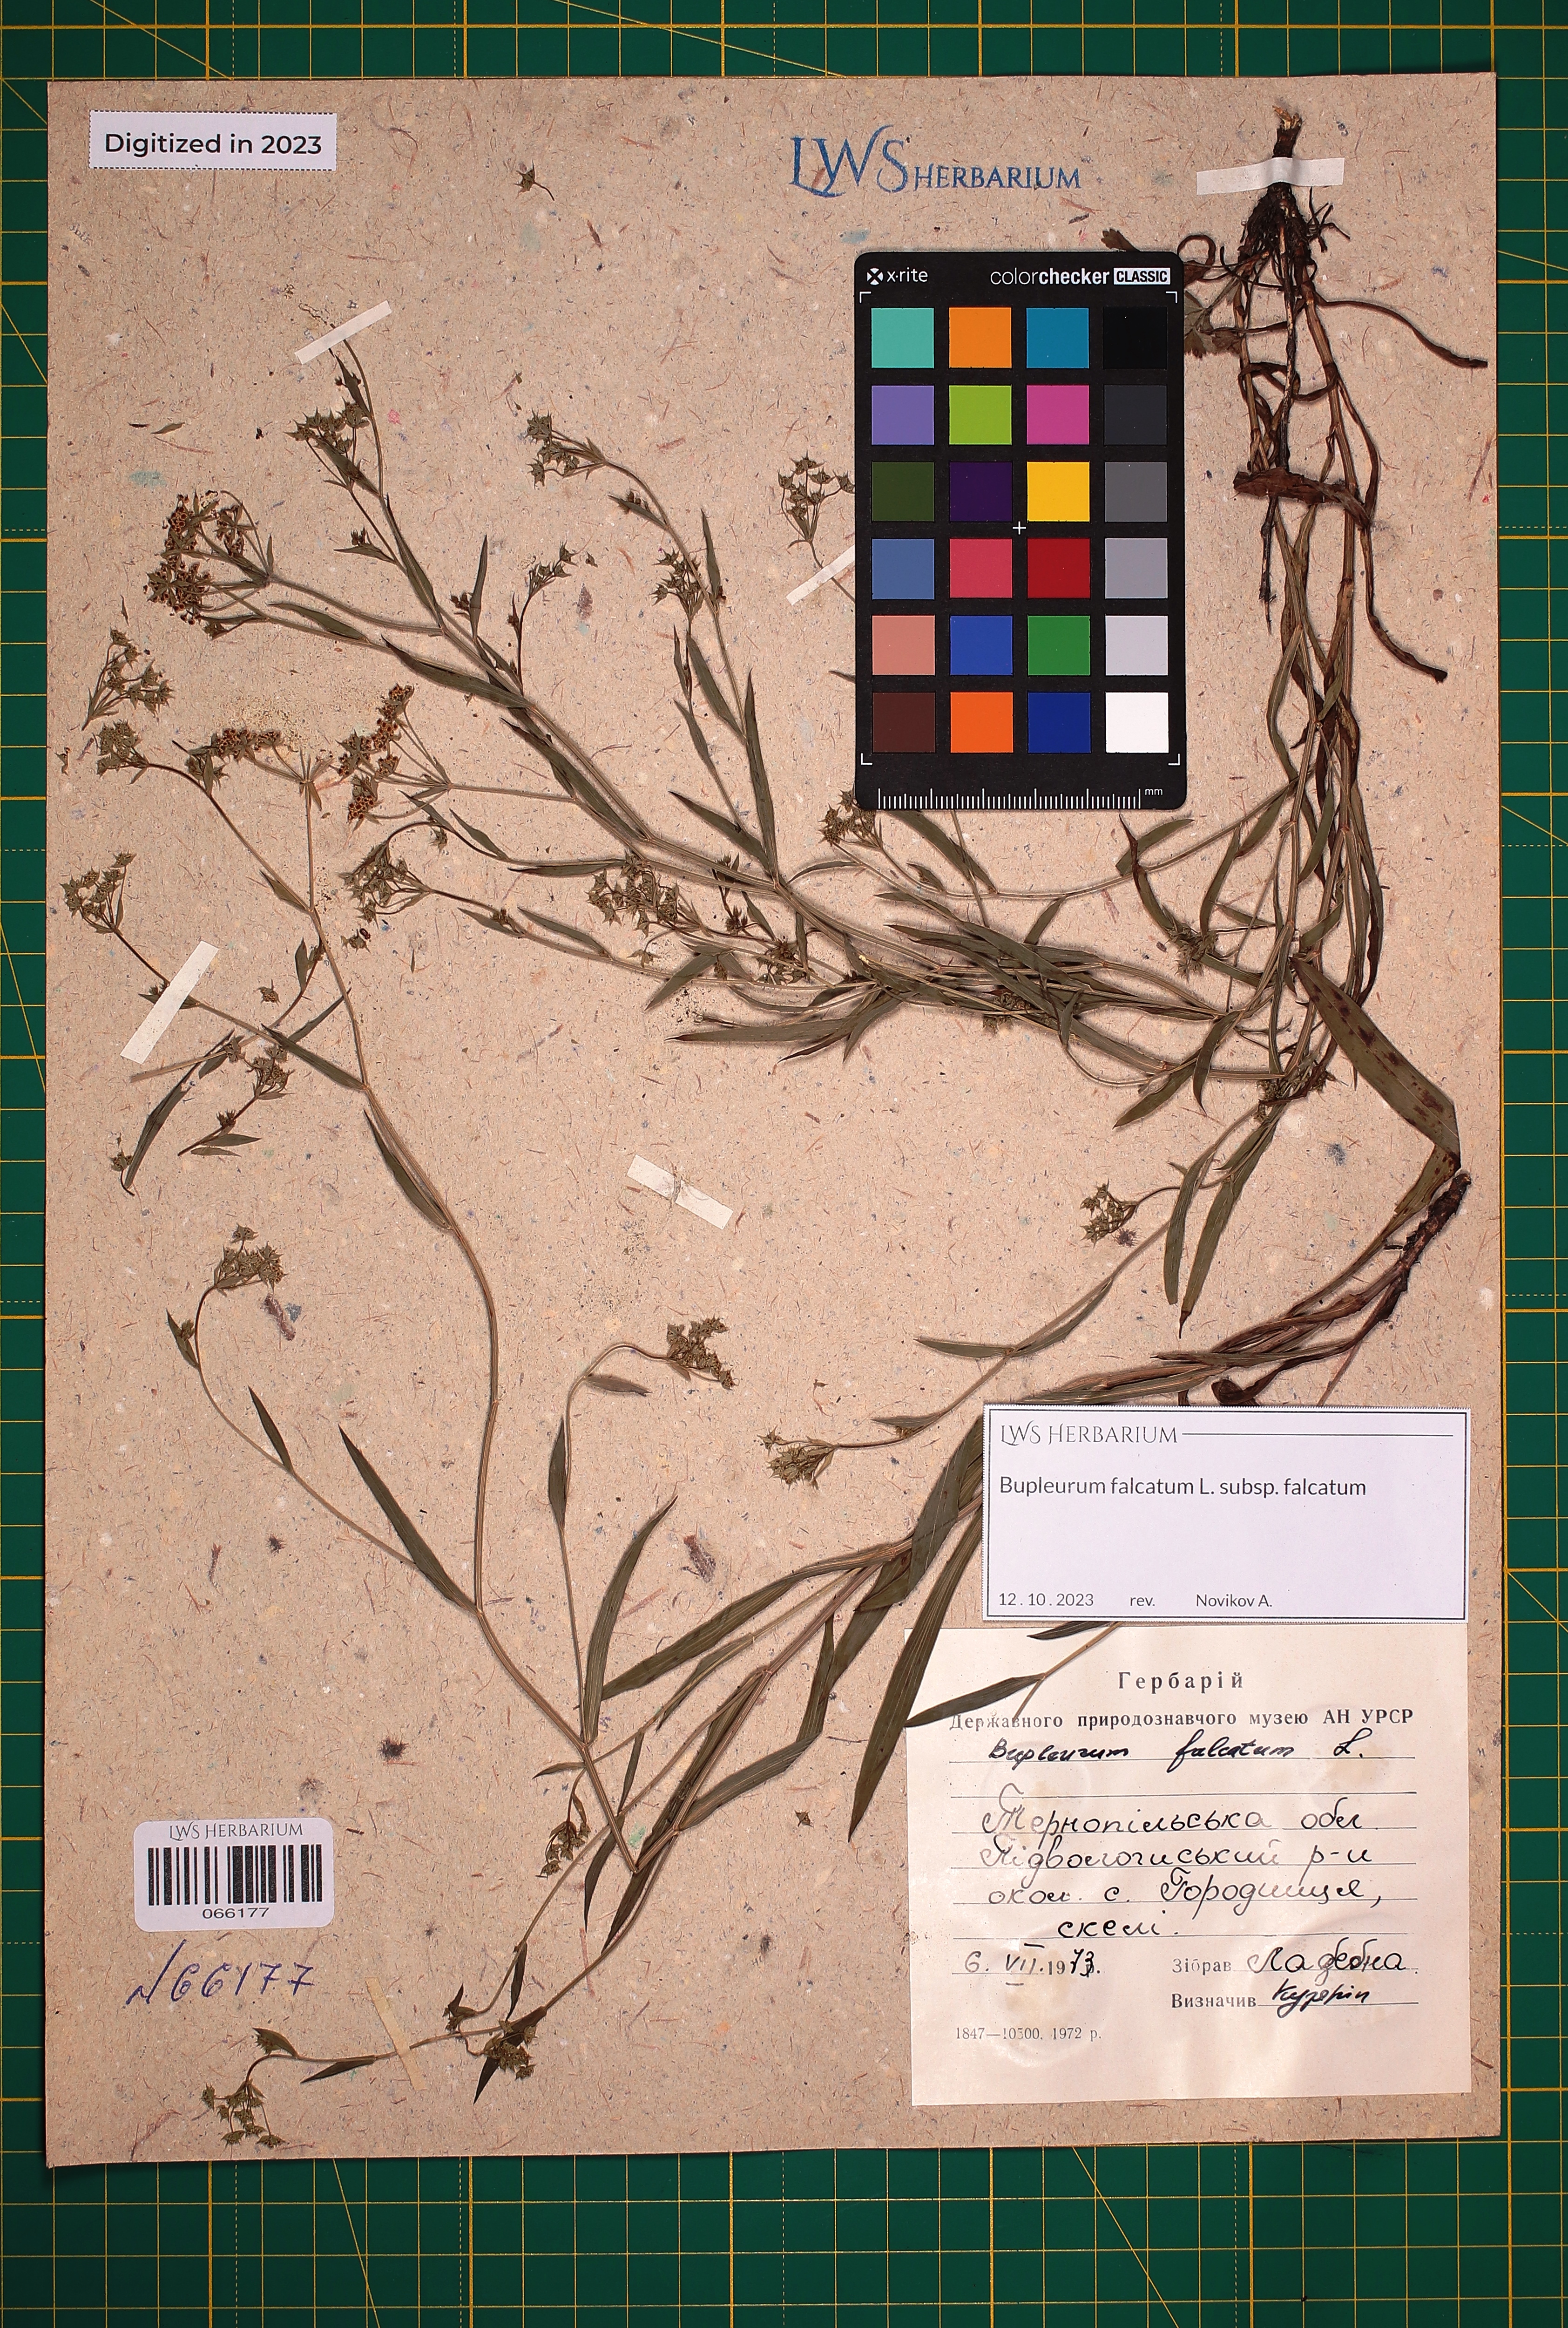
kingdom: Plantae
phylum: Tracheophyta
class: Magnoliopsida
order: Apiales
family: Apiaceae
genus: Bupleurum
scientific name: Bupleurum falcatum
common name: Sickle-leaved hare's-ear
